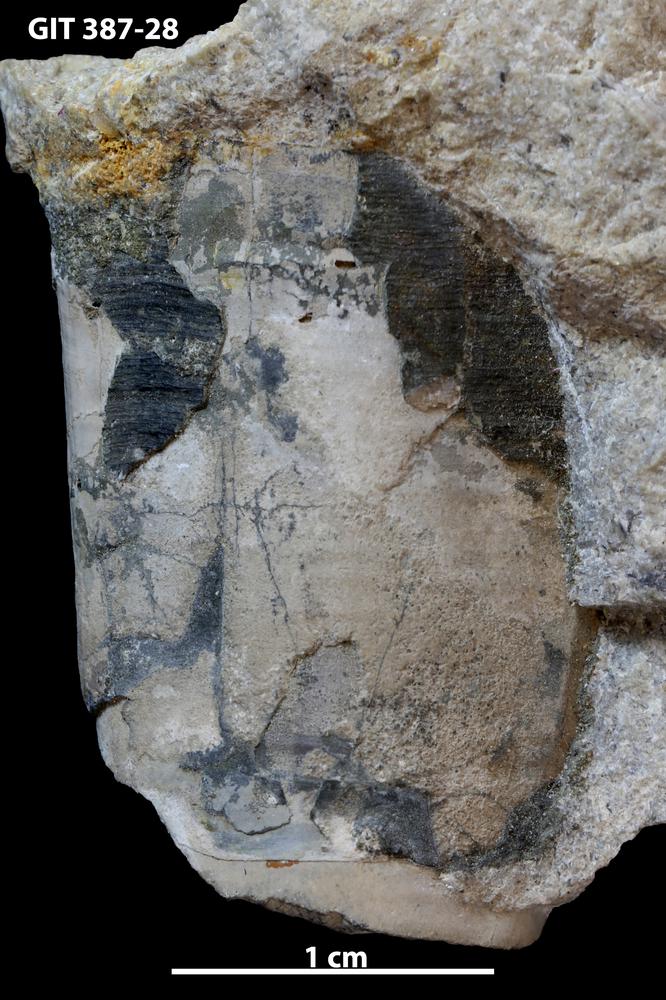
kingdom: Animalia
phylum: Annelida
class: Polychaeta
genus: Hyolithes
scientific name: Hyolithes
